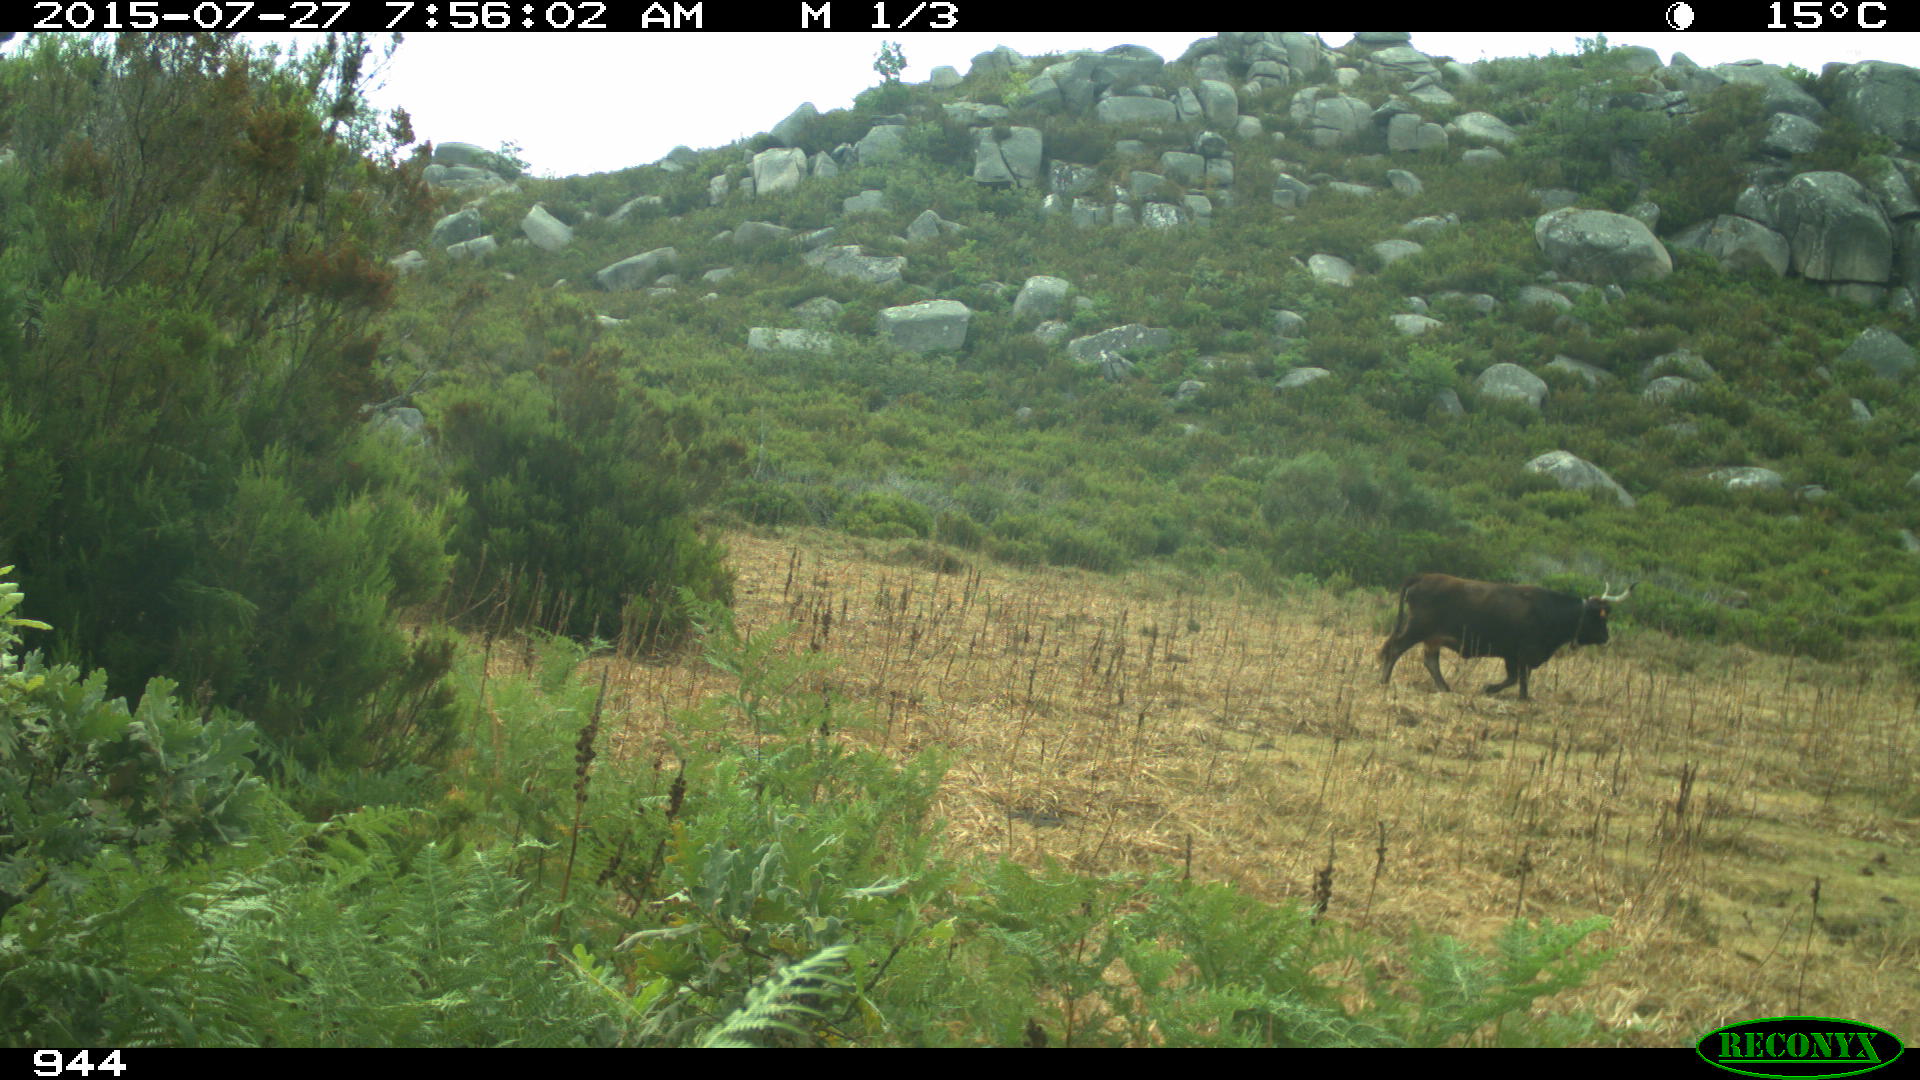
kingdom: Animalia
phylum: Chordata
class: Mammalia
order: Artiodactyla
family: Bovidae
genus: Bos
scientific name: Bos taurus
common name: Domesticated cattle
